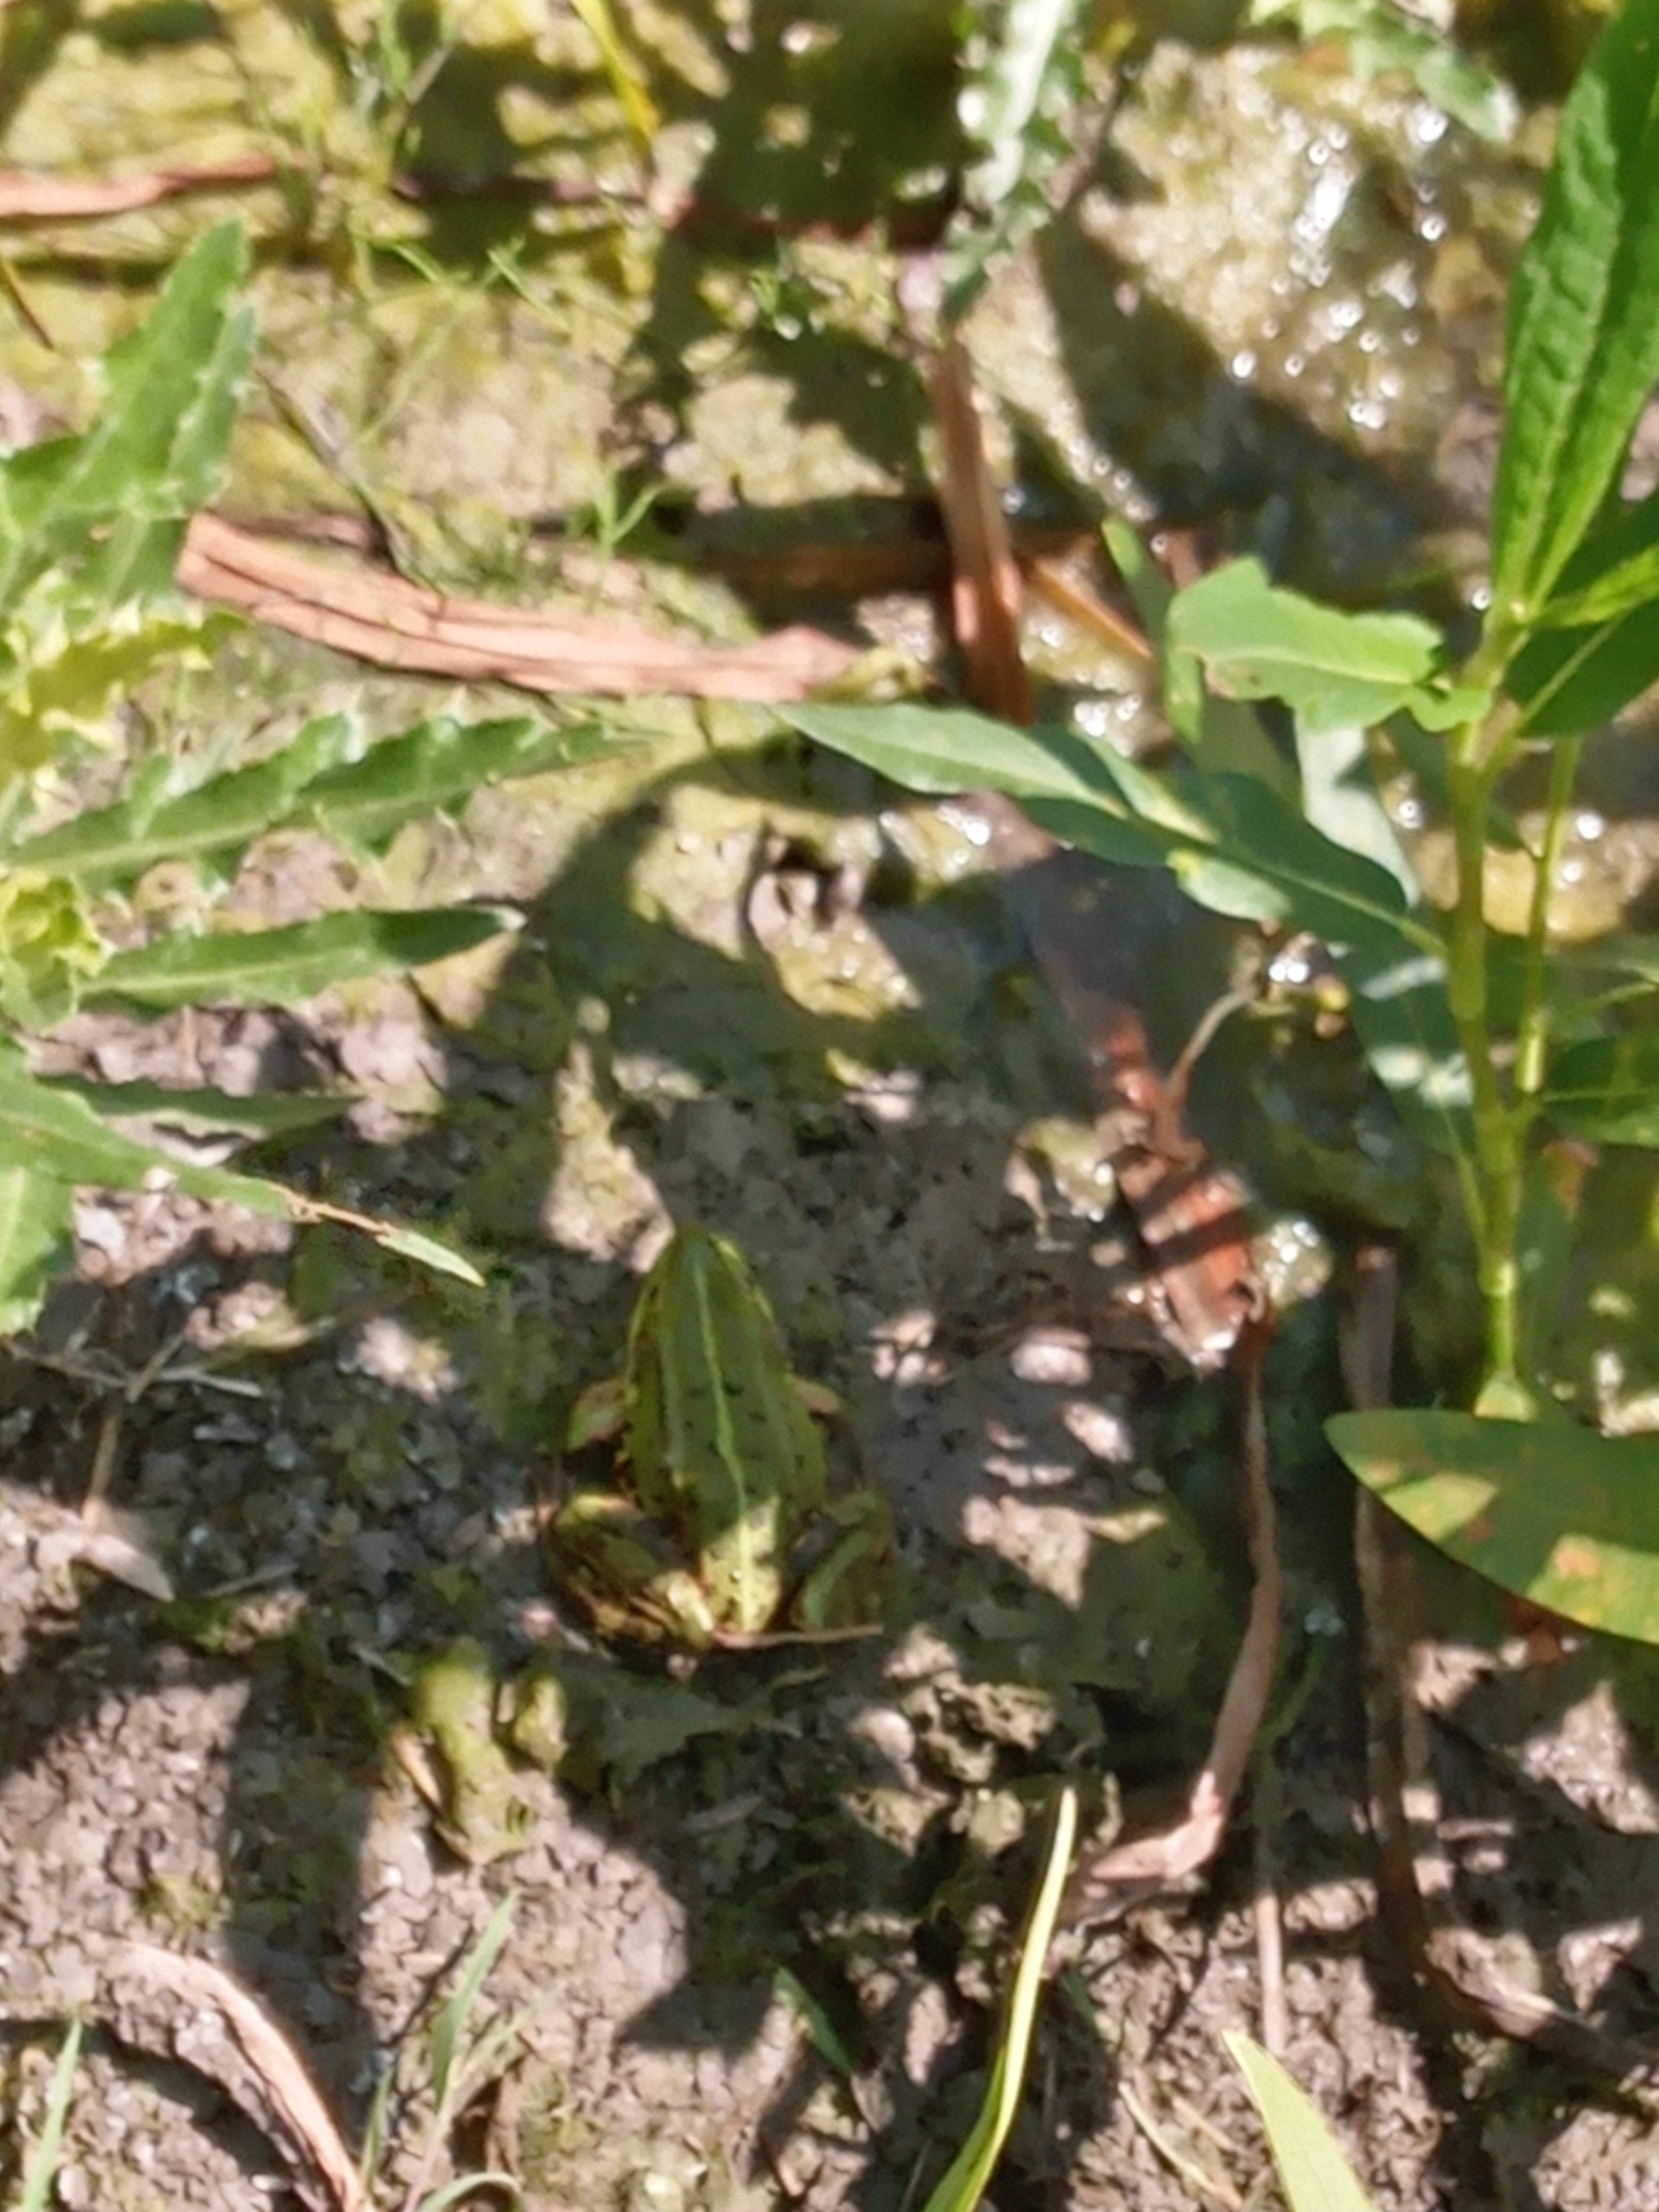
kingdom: Animalia
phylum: Chordata
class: Amphibia
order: Anura
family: Ranidae
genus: Pelophylax
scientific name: Pelophylax lessonae
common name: Grøn frø
